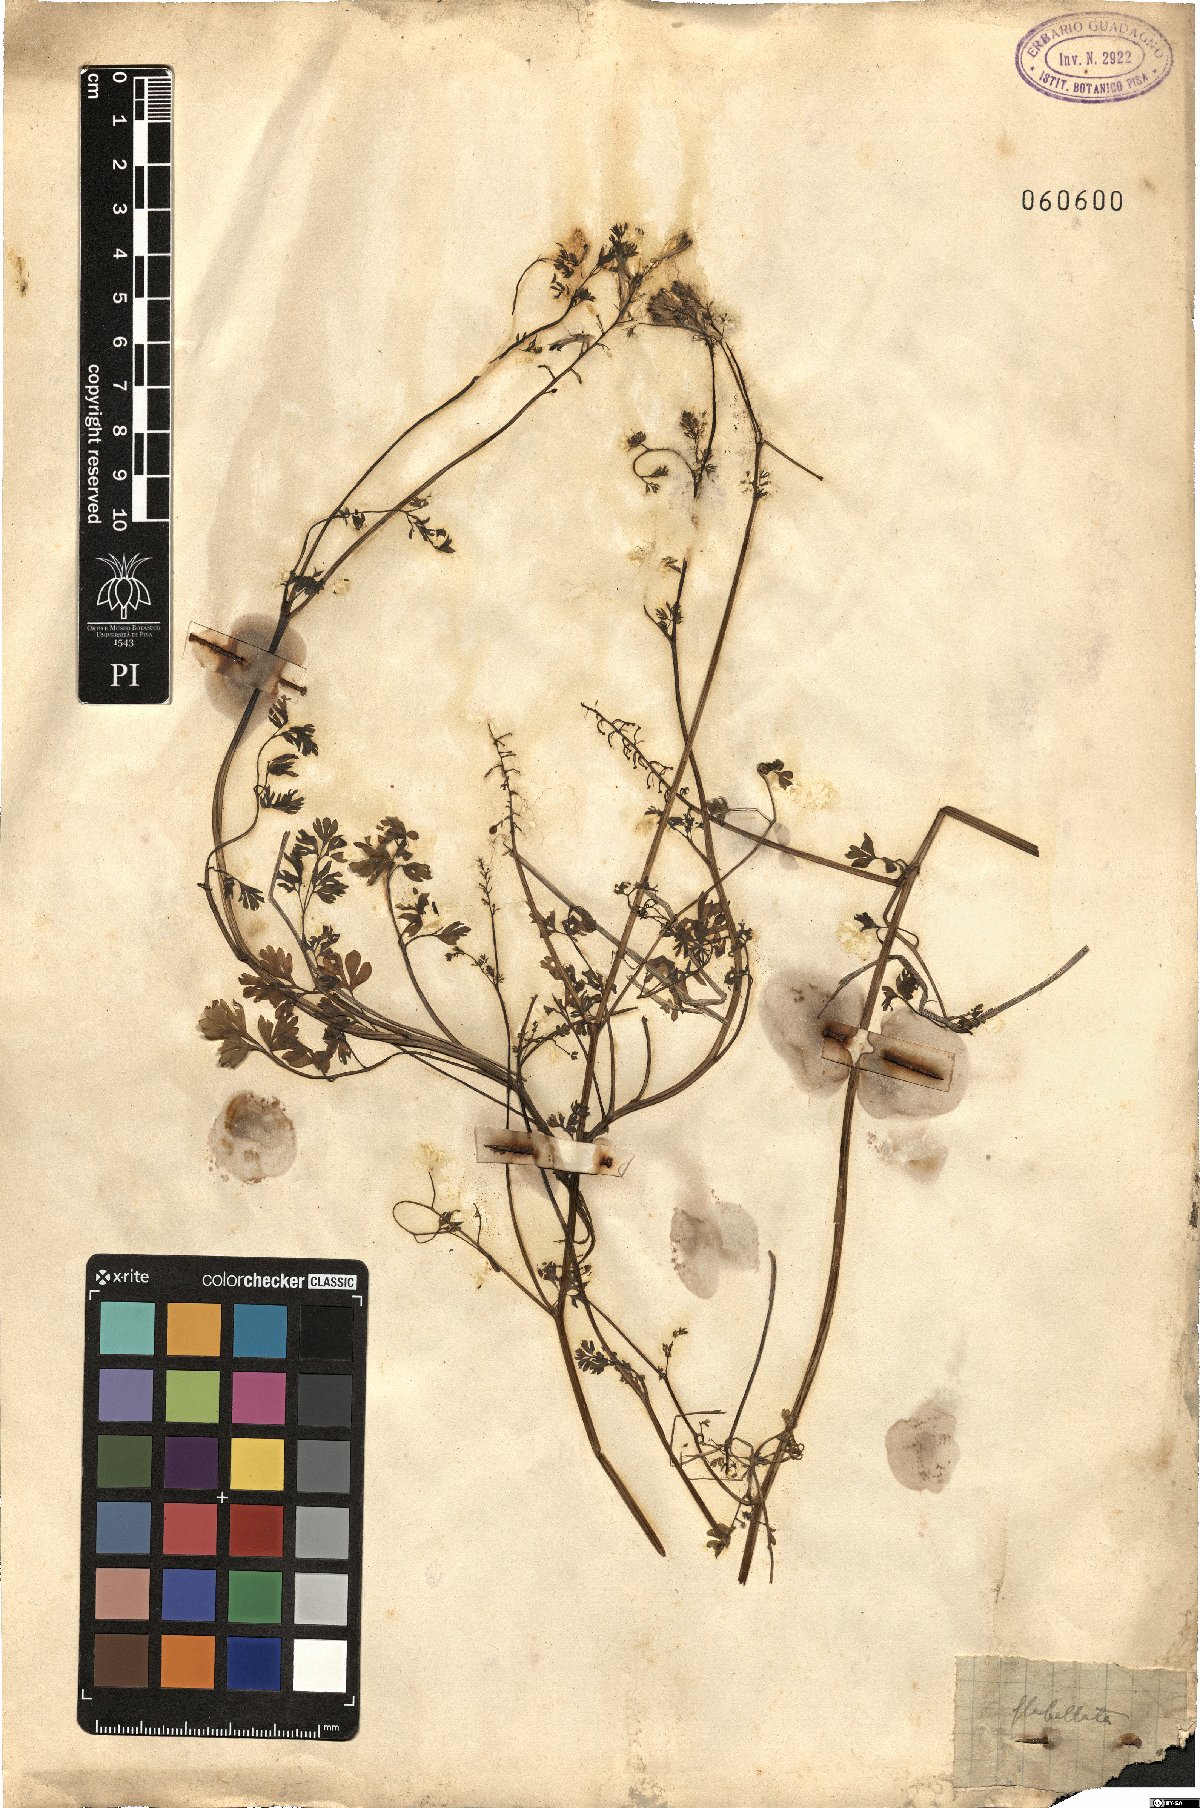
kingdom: Plantae
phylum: Tracheophyta
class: Magnoliopsida
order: Ranunculales
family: Papaveraceae
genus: Fumaria
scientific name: Fumaria flabellata
